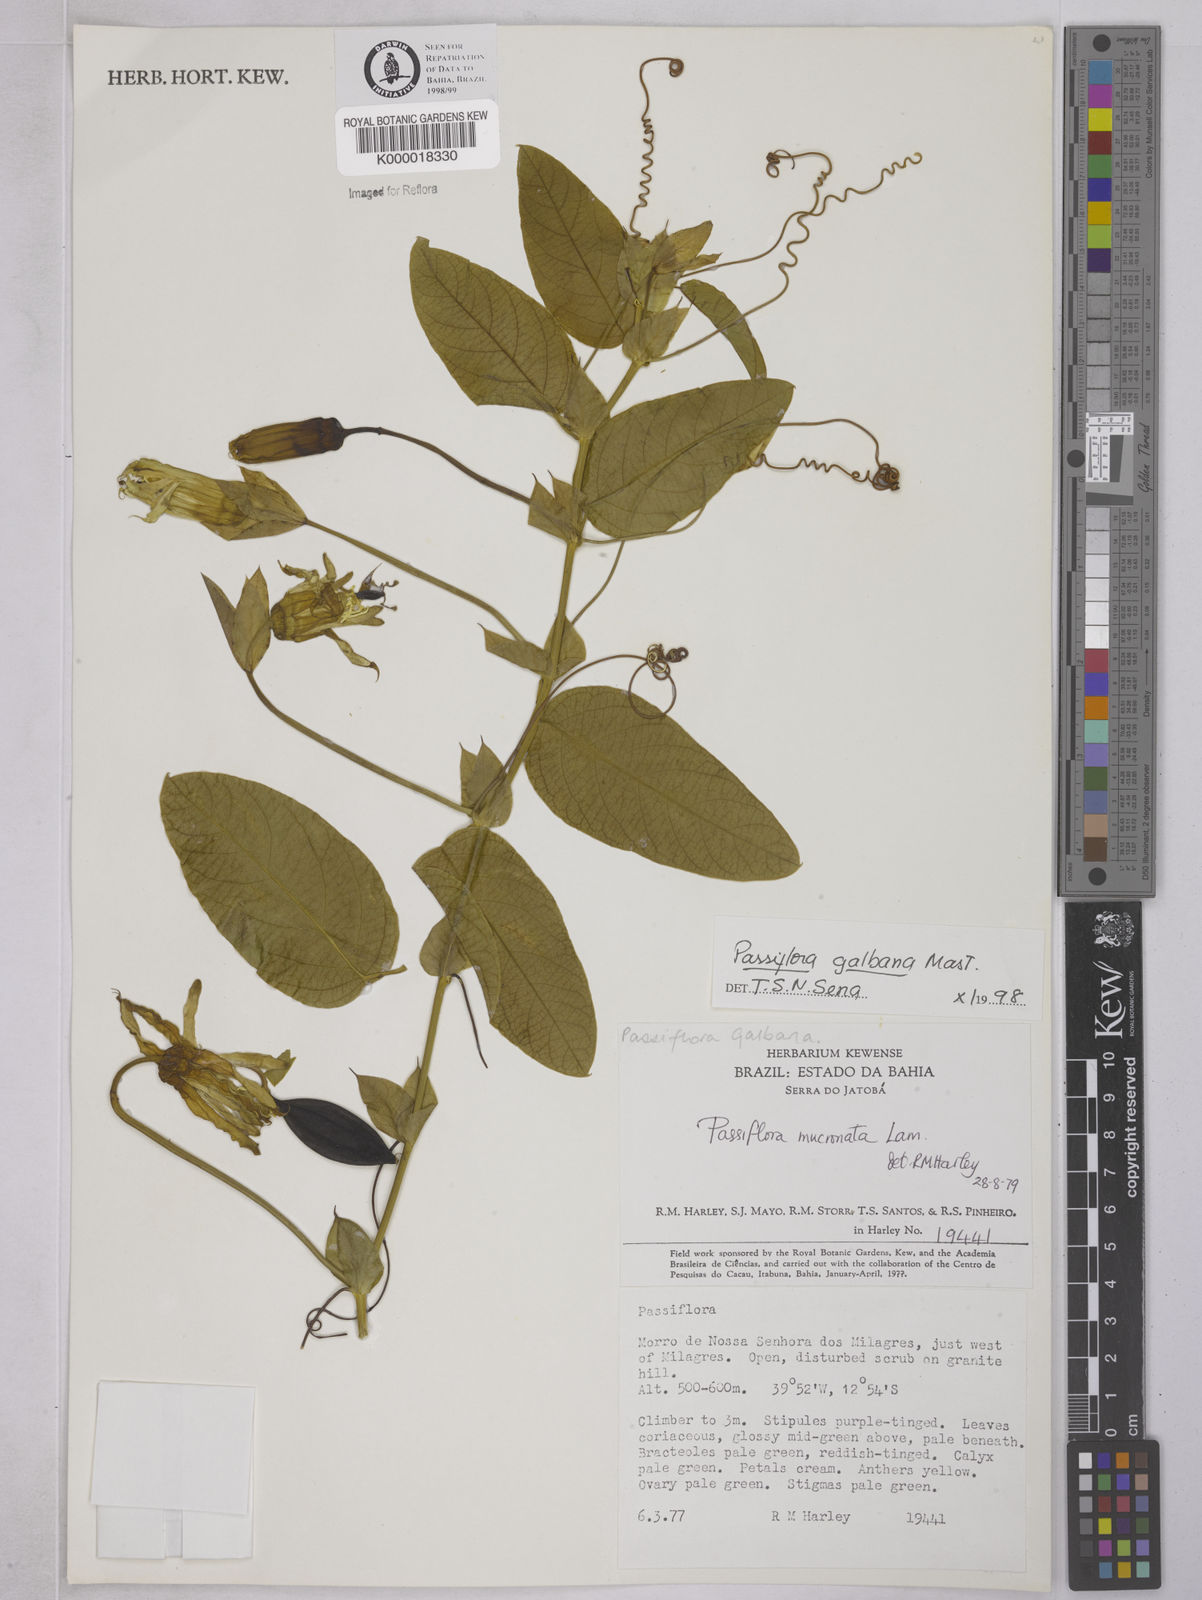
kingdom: Plantae
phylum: Tracheophyta
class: Magnoliopsida
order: Malpighiales
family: Passifloraceae
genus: Passiflora
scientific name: Passiflora silvestris
